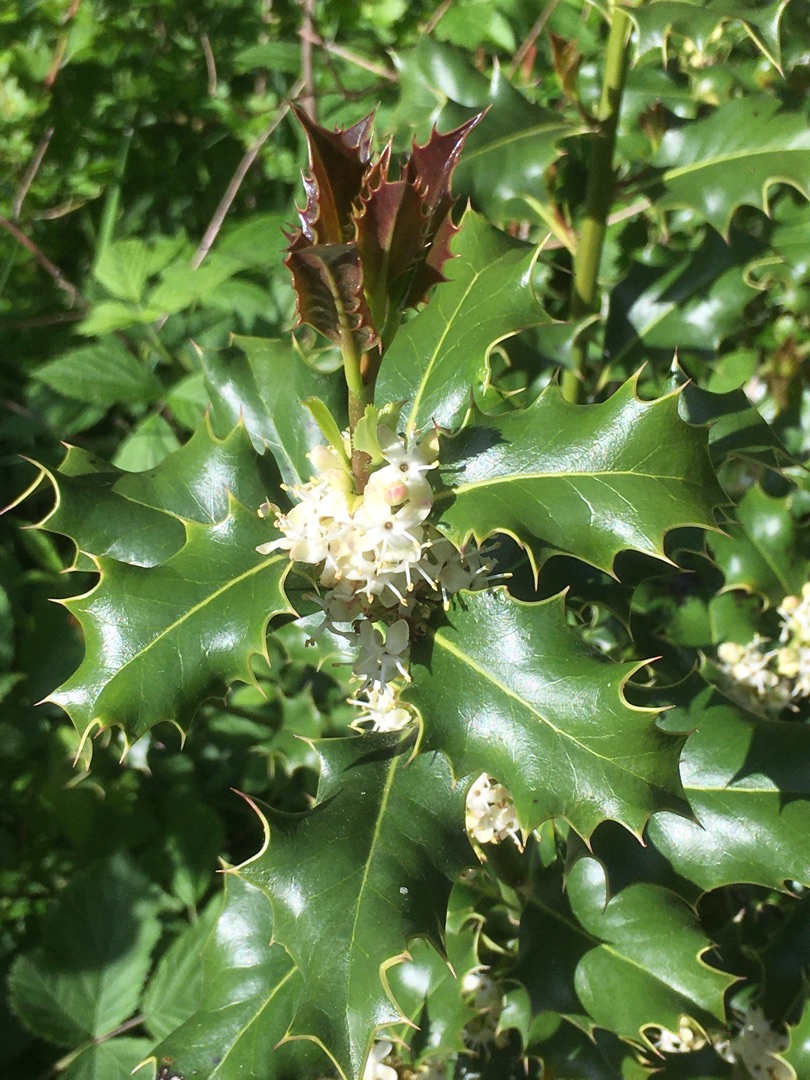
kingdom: Plantae
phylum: Tracheophyta
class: Magnoliopsida
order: Aquifoliales
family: Aquifoliaceae
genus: Ilex
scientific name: Ilex aquifolium
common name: Kristtorn
